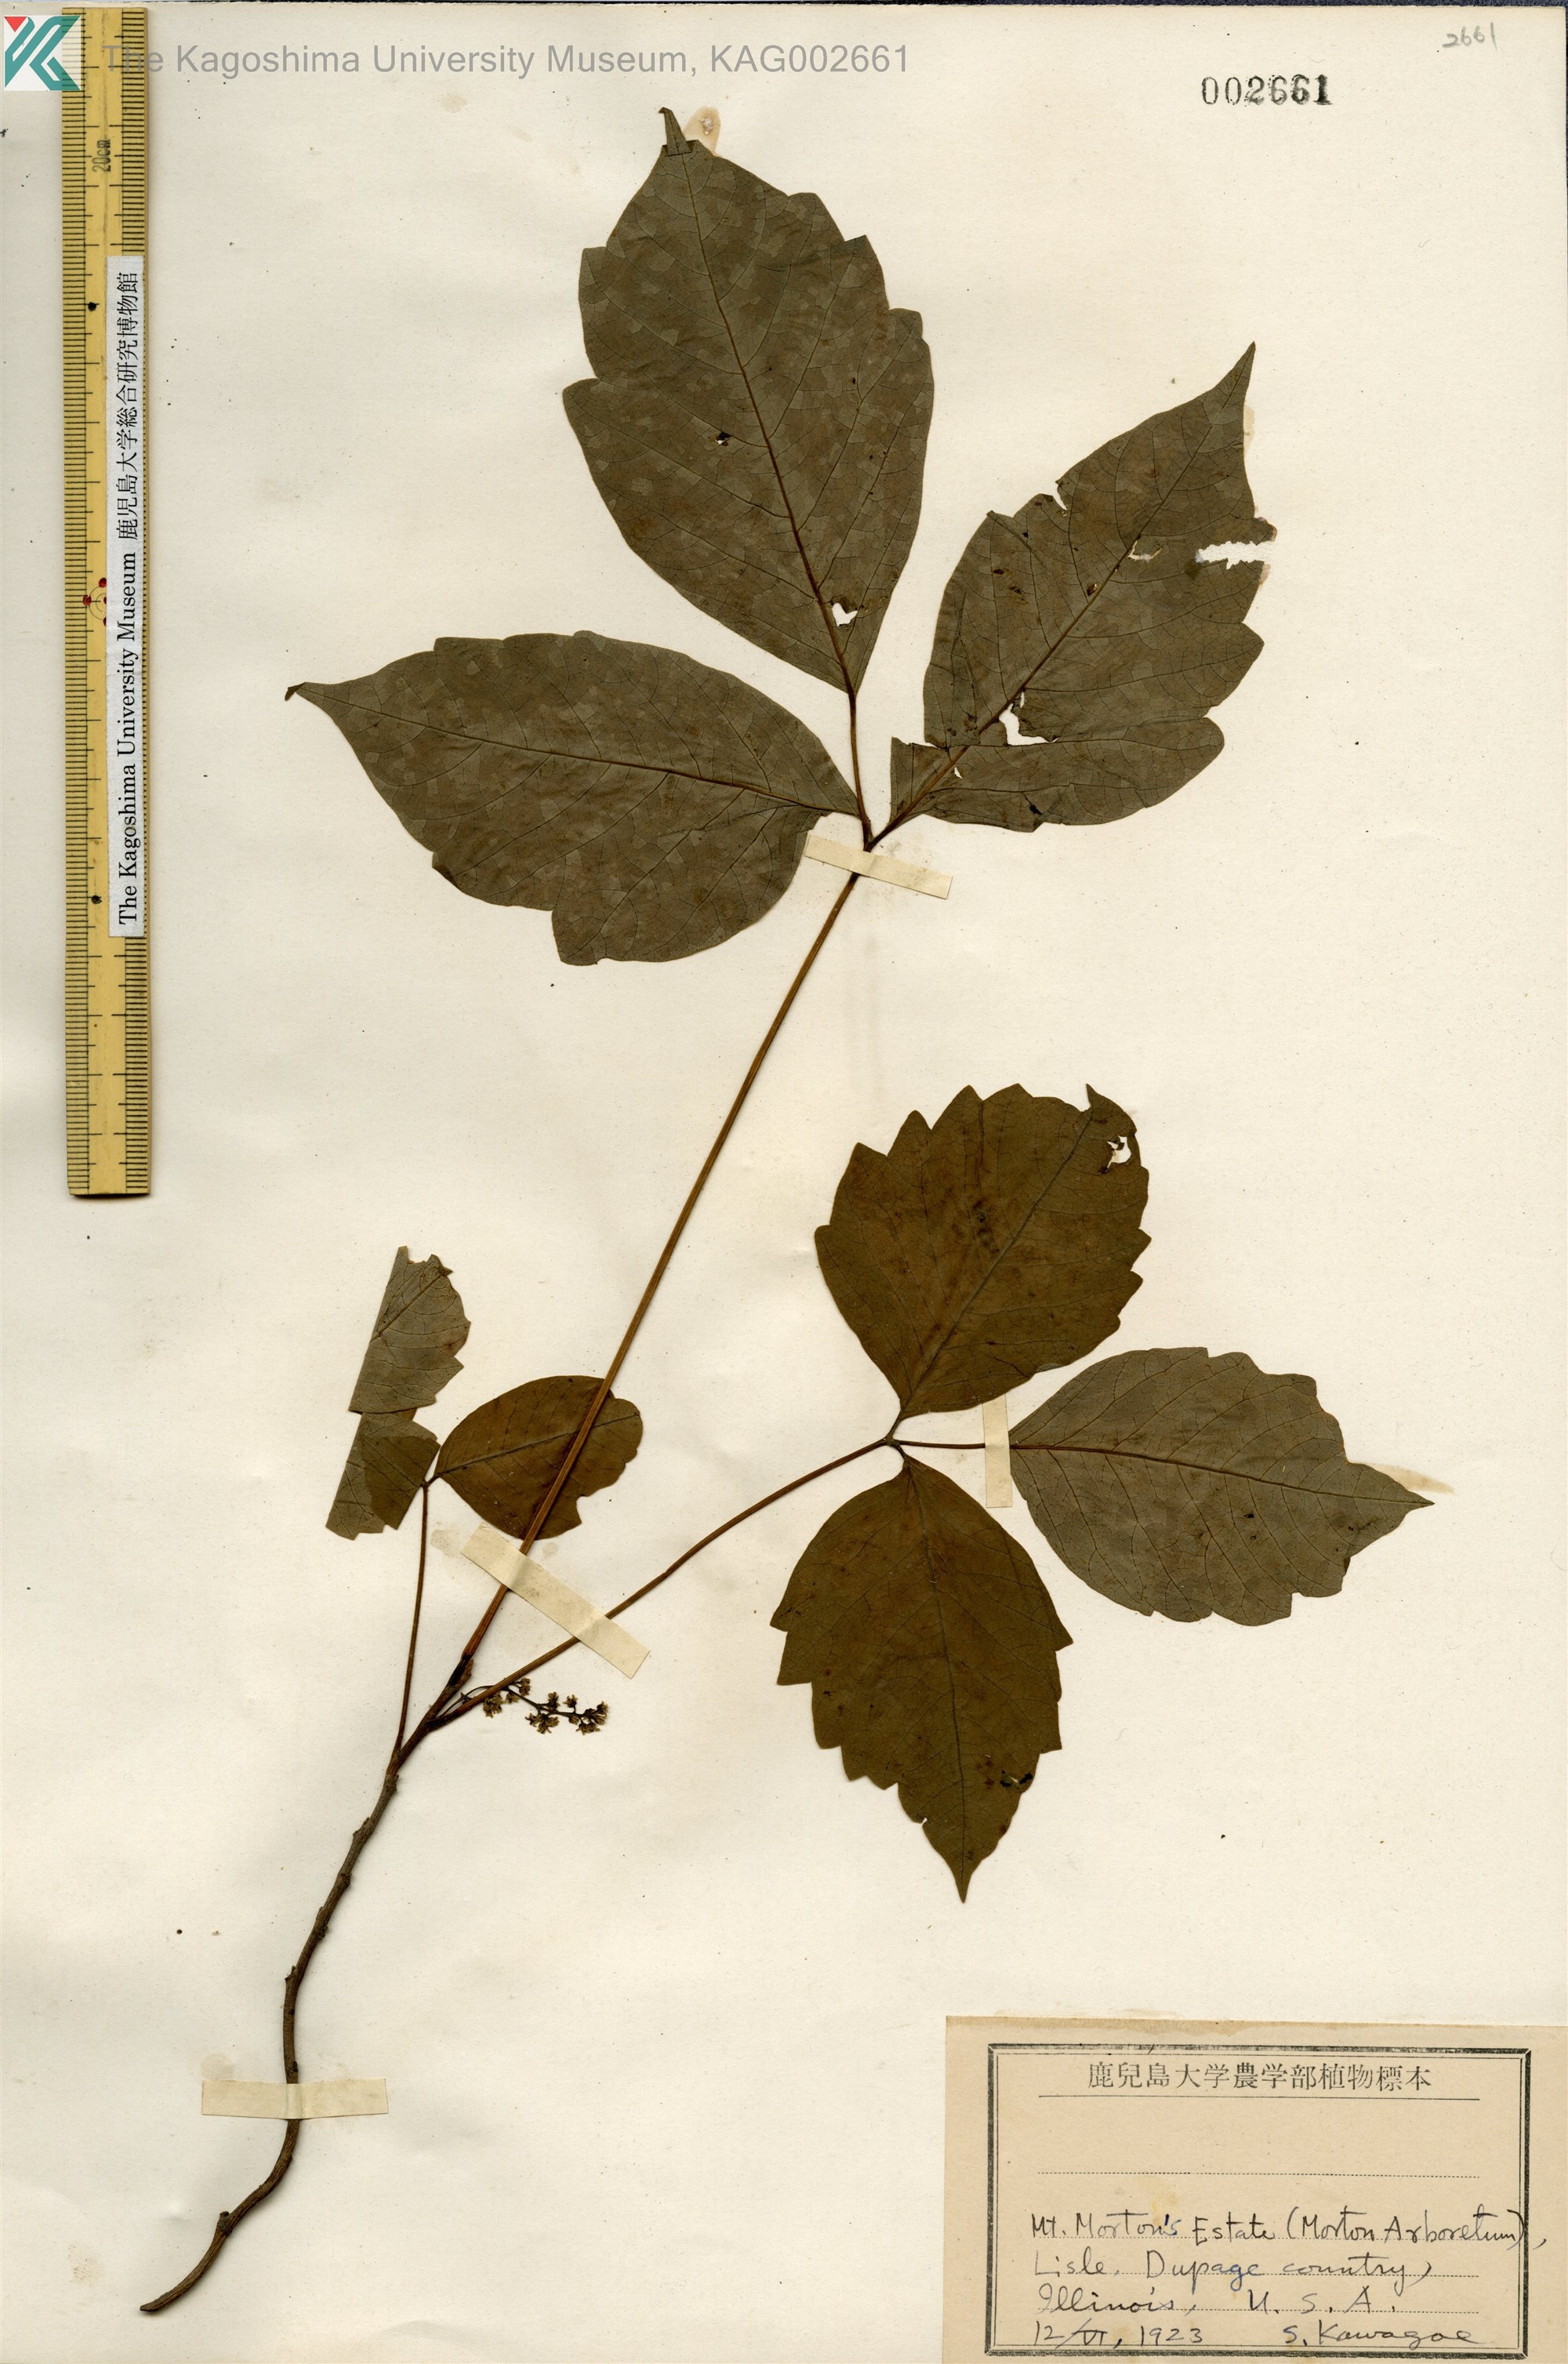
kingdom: Plantae
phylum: Tracheophyta
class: Magnoliopsida
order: Sapindales
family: Anacardiaceae
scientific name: Anacardiaceae
